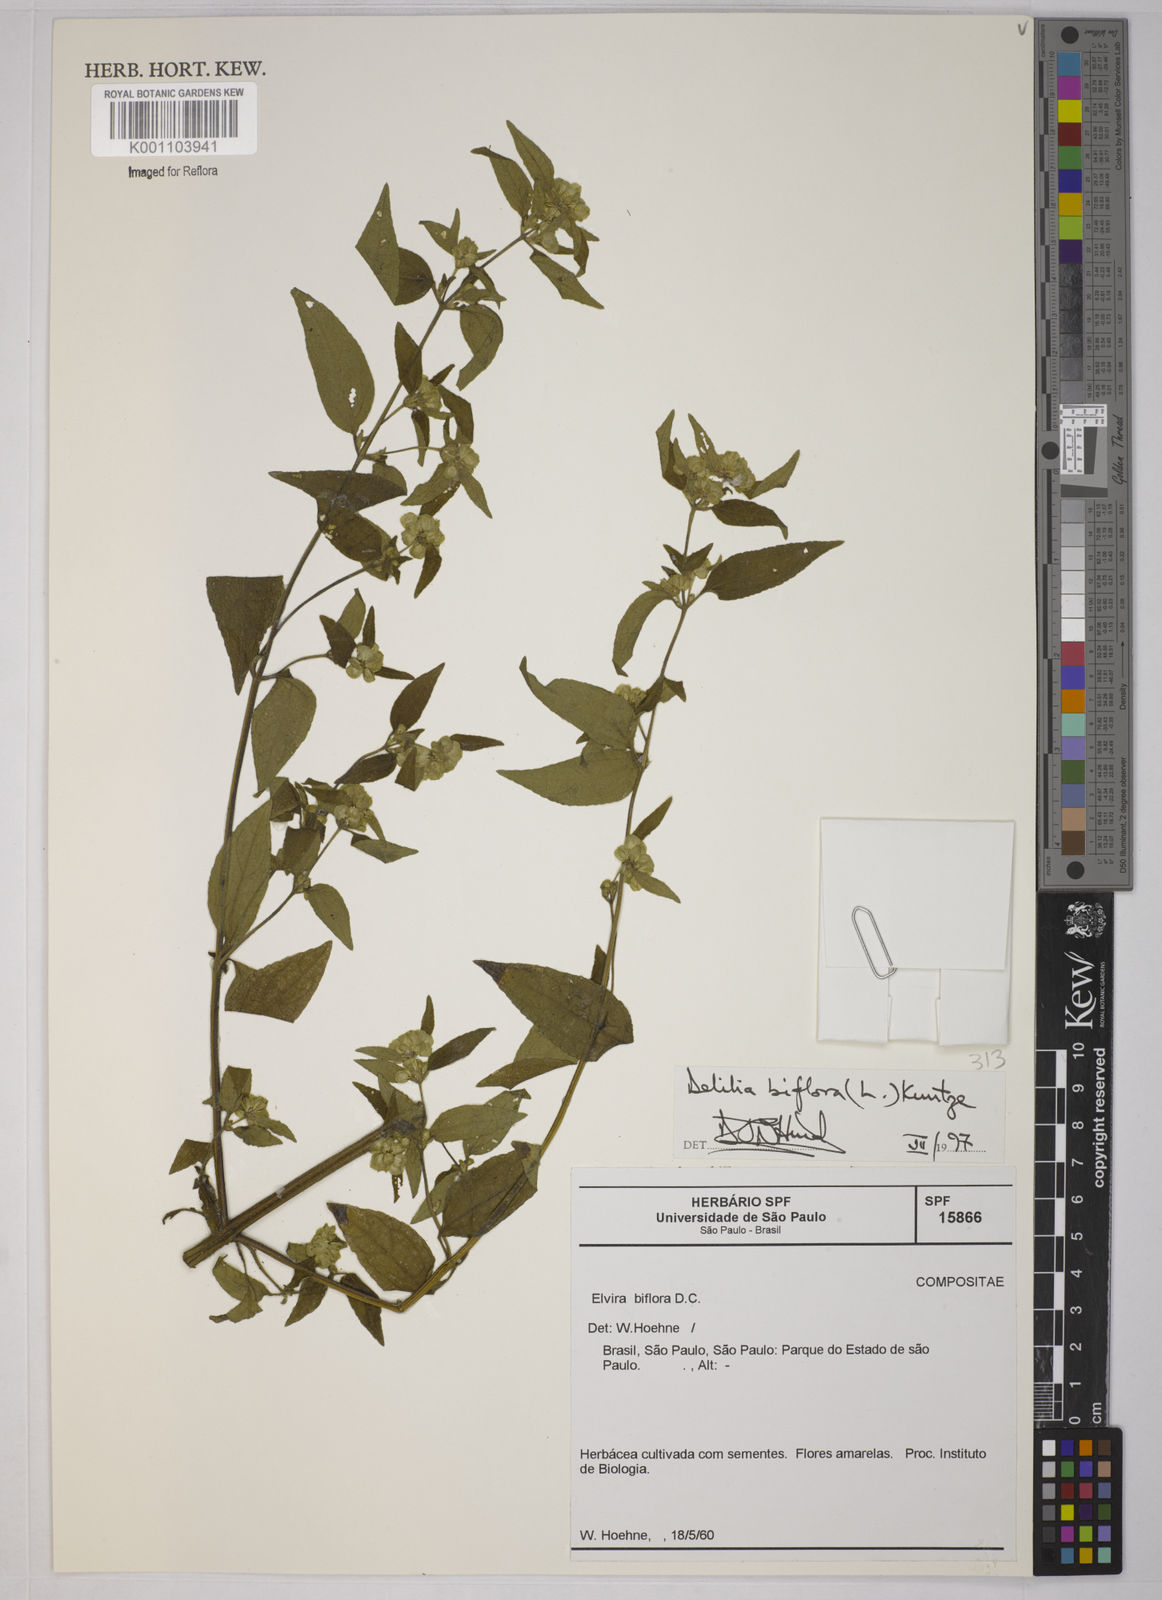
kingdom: Plantae
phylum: Tracheophyta
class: Magnoliopsida
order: Asterales
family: Asteraceae
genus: Delilia
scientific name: Delilia biflora
